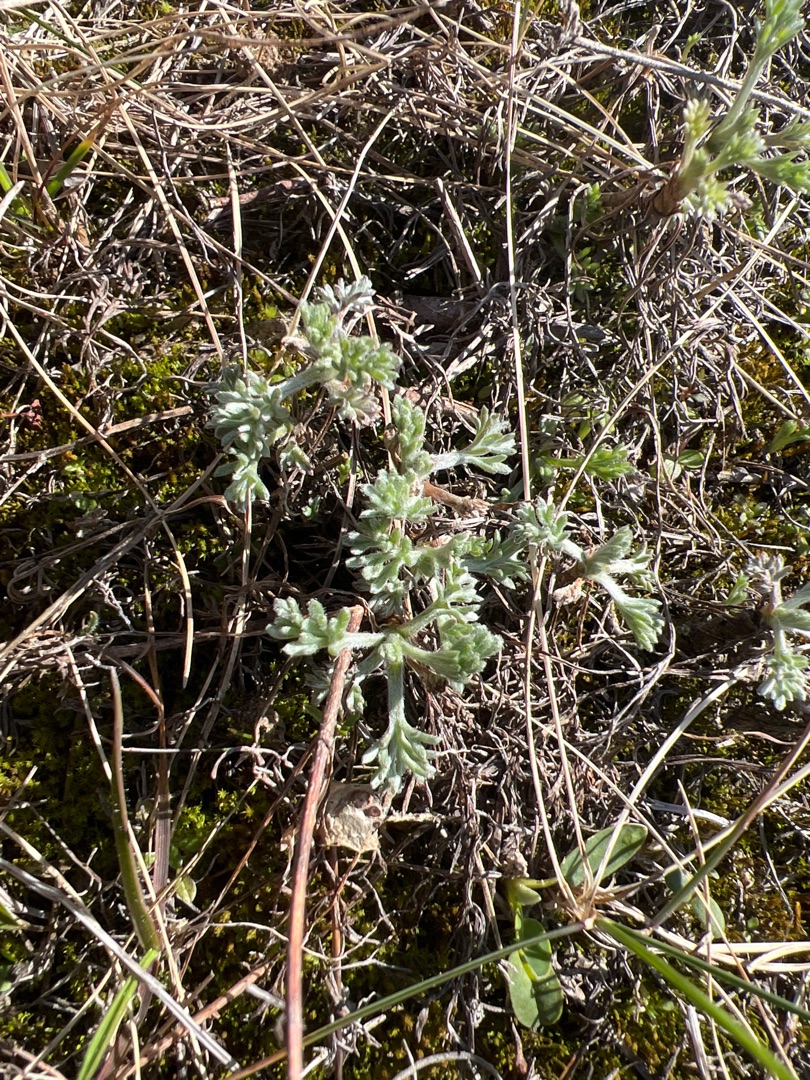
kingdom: Plantae
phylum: Tracheophyta
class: Magnoliopsida
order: Asterales
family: Asteraceae
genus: Artemisia
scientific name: Artemisia campestris
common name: Mark-bynke
